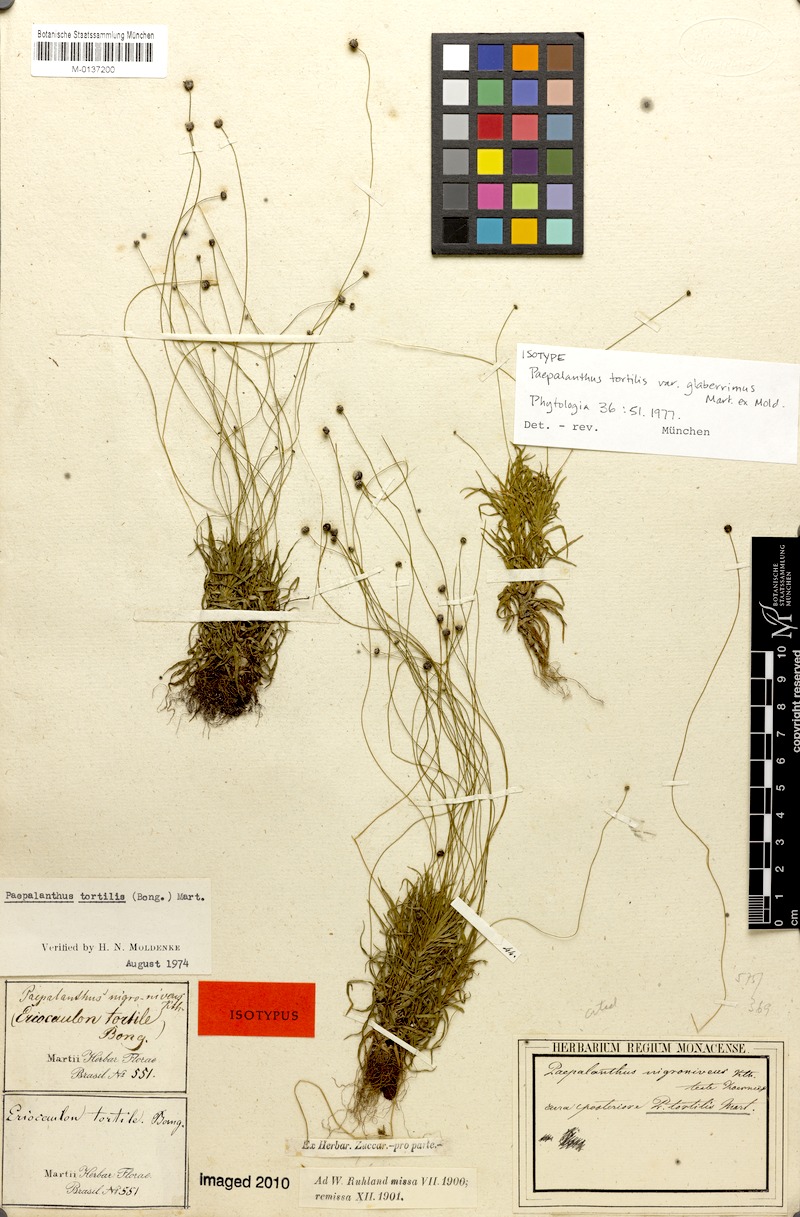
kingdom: Plantae
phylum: Tracheophyta
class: Liliopsida
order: Poales
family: Eriocaulaceae
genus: Paepalanthus
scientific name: Paepalanthus tortilis
